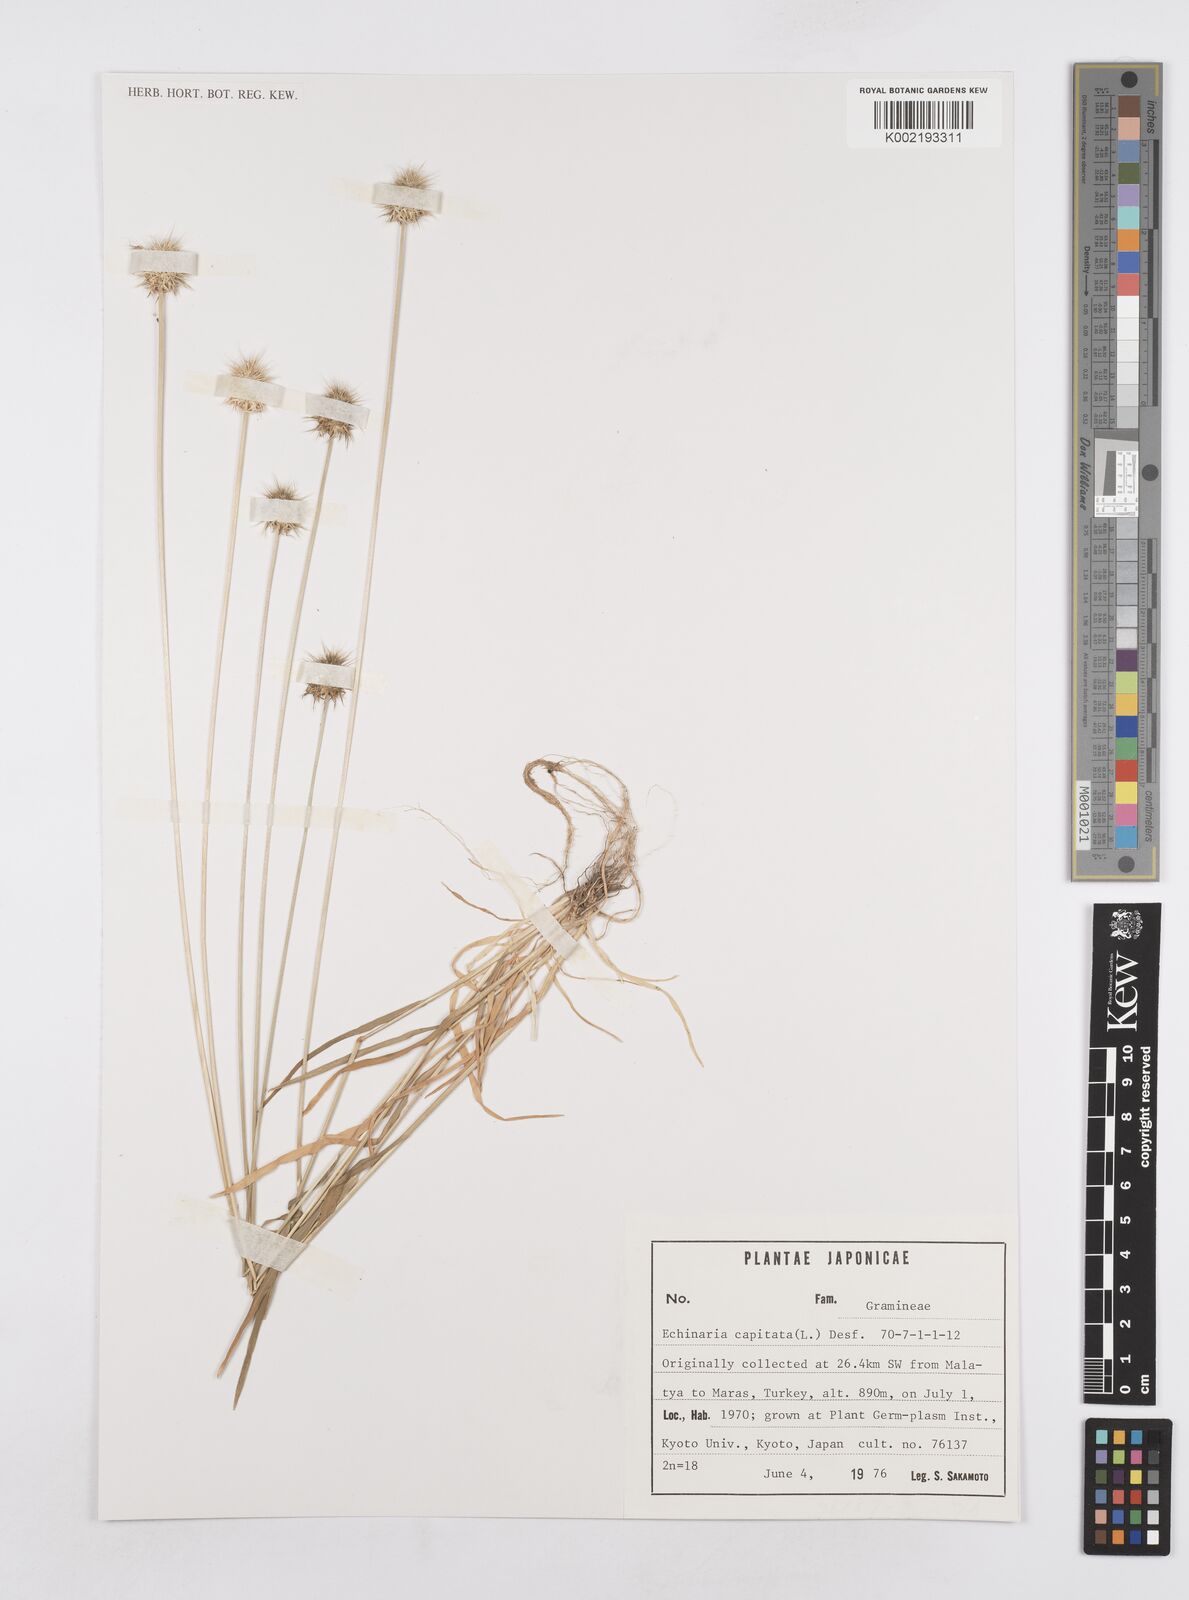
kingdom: Plantae
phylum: Tracheophyta
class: Liliopsida
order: Poales
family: Poaceae
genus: Echinaria
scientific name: Echinaria capitata
